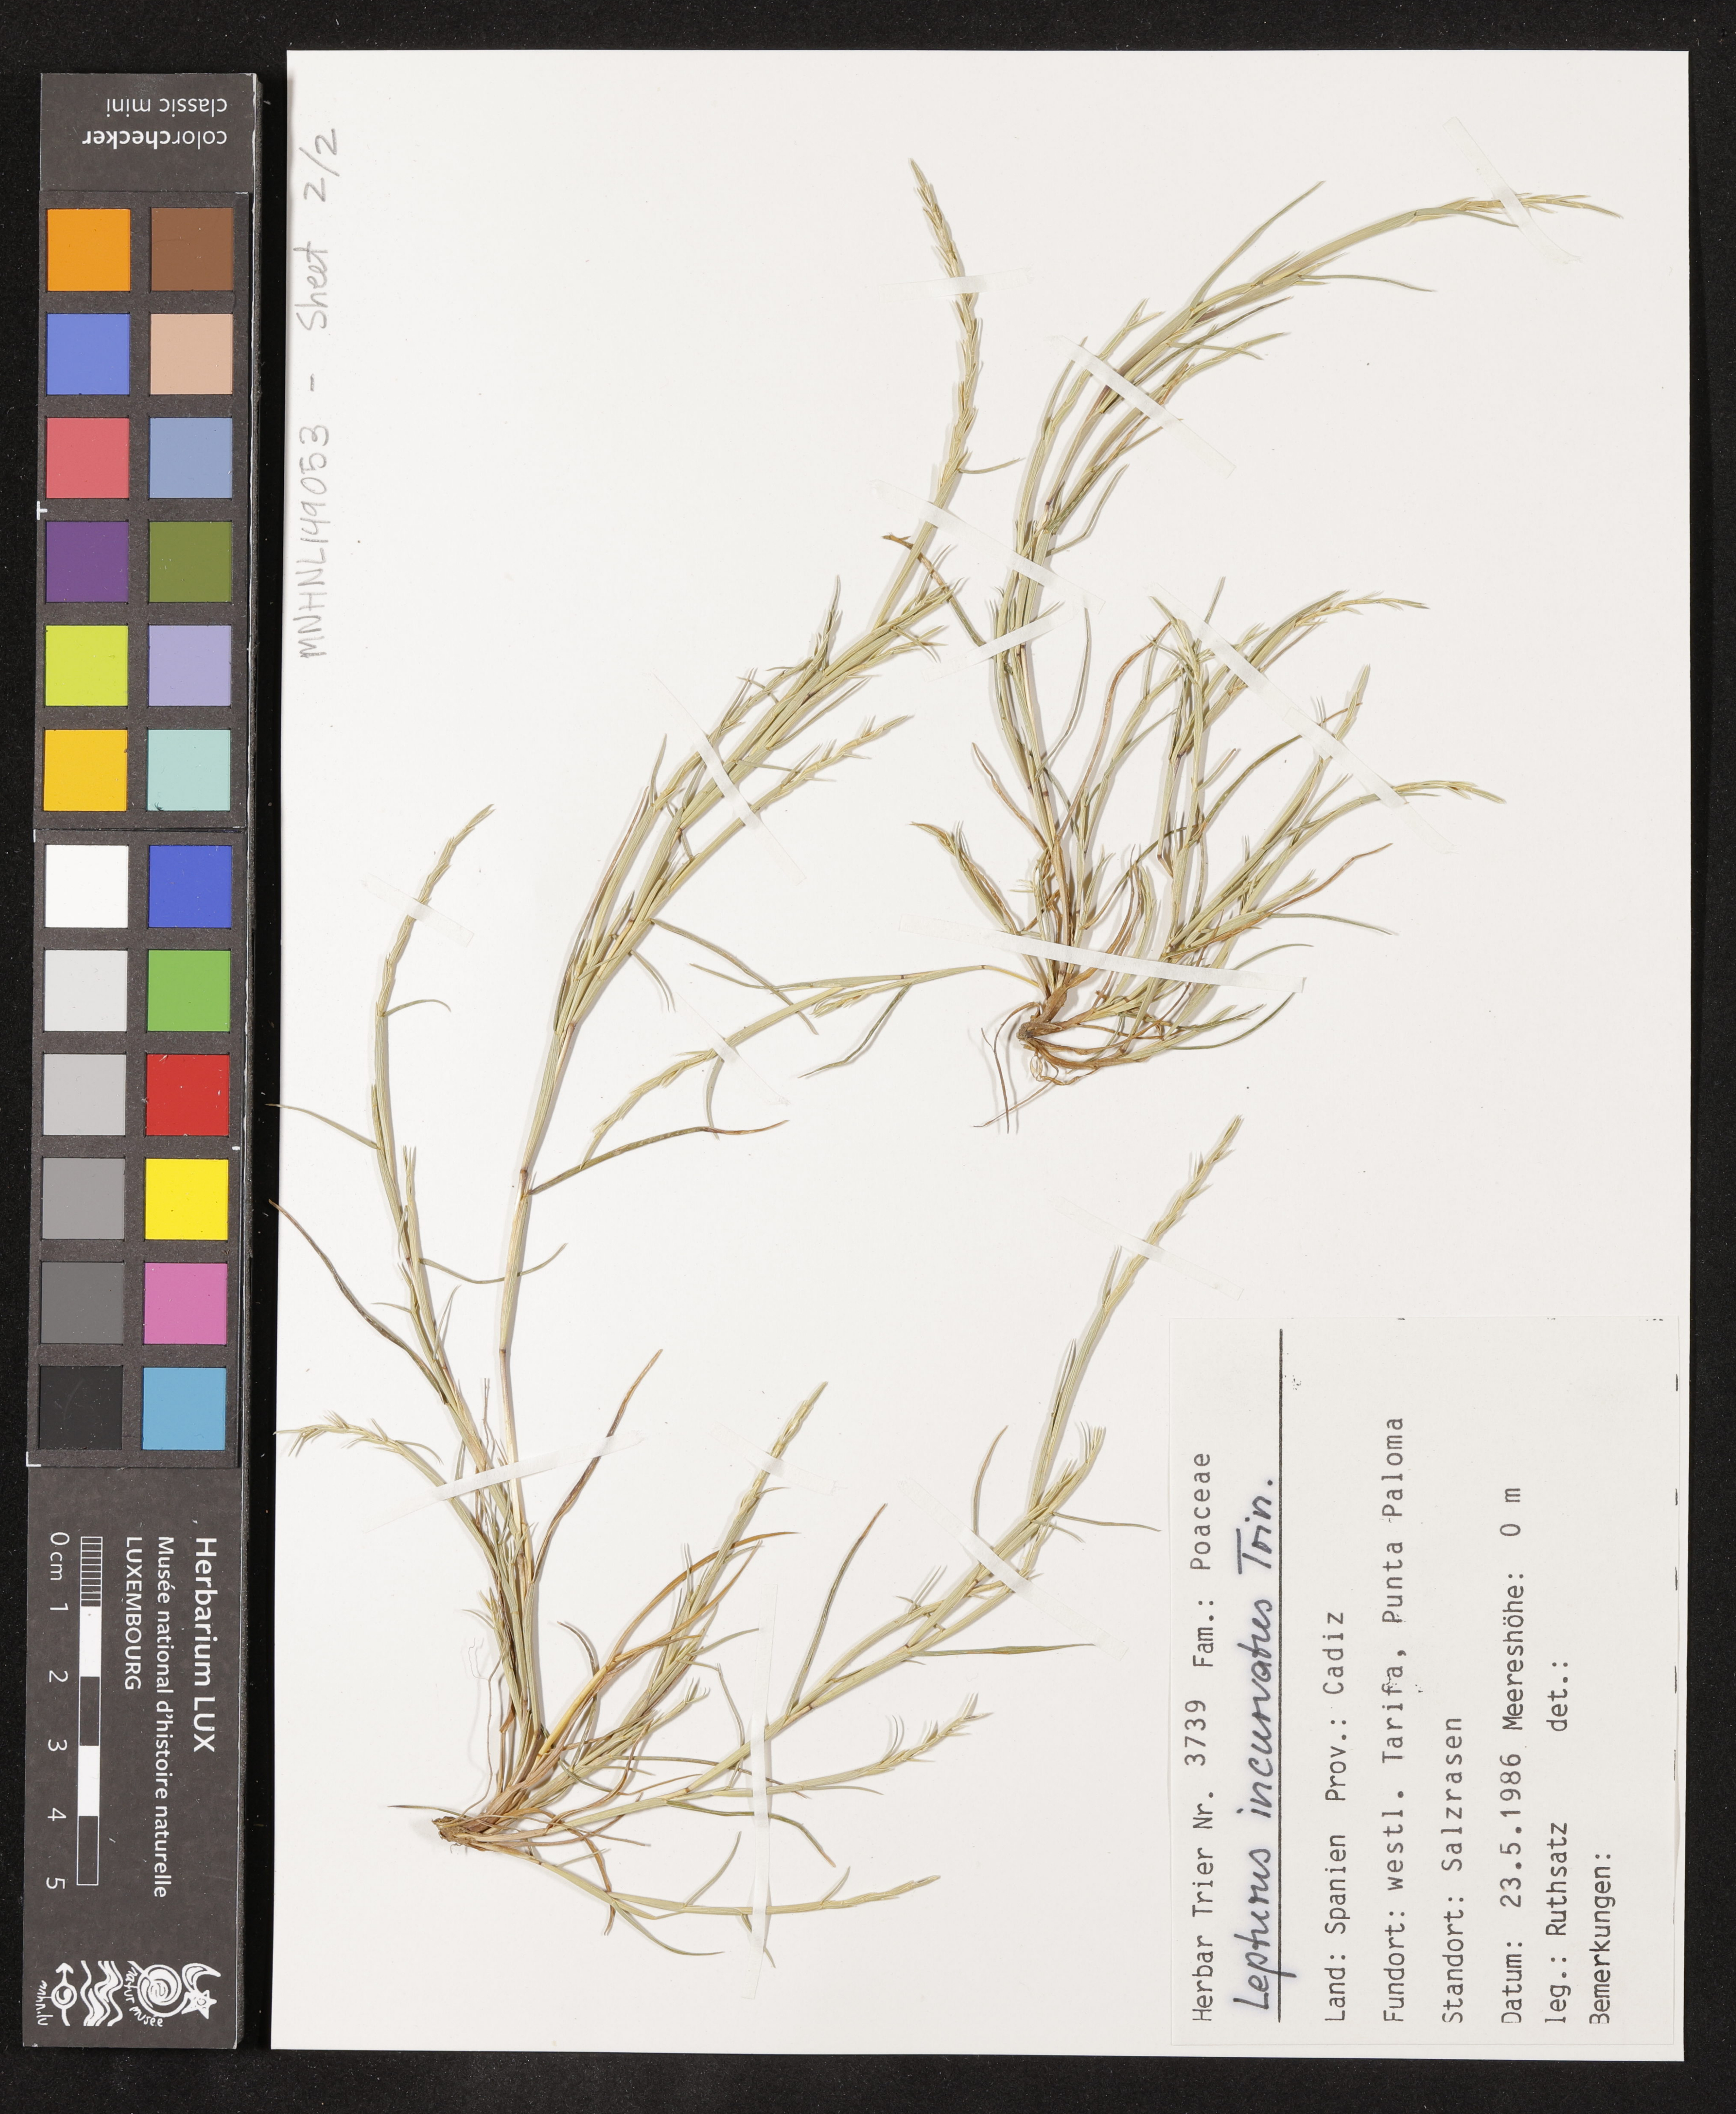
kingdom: Plantae
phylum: Tracheophyta
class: Liliopsida
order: Poales
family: Poaceae
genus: Parapholis
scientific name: Parapholis incurva
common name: Curved sicklegrass
